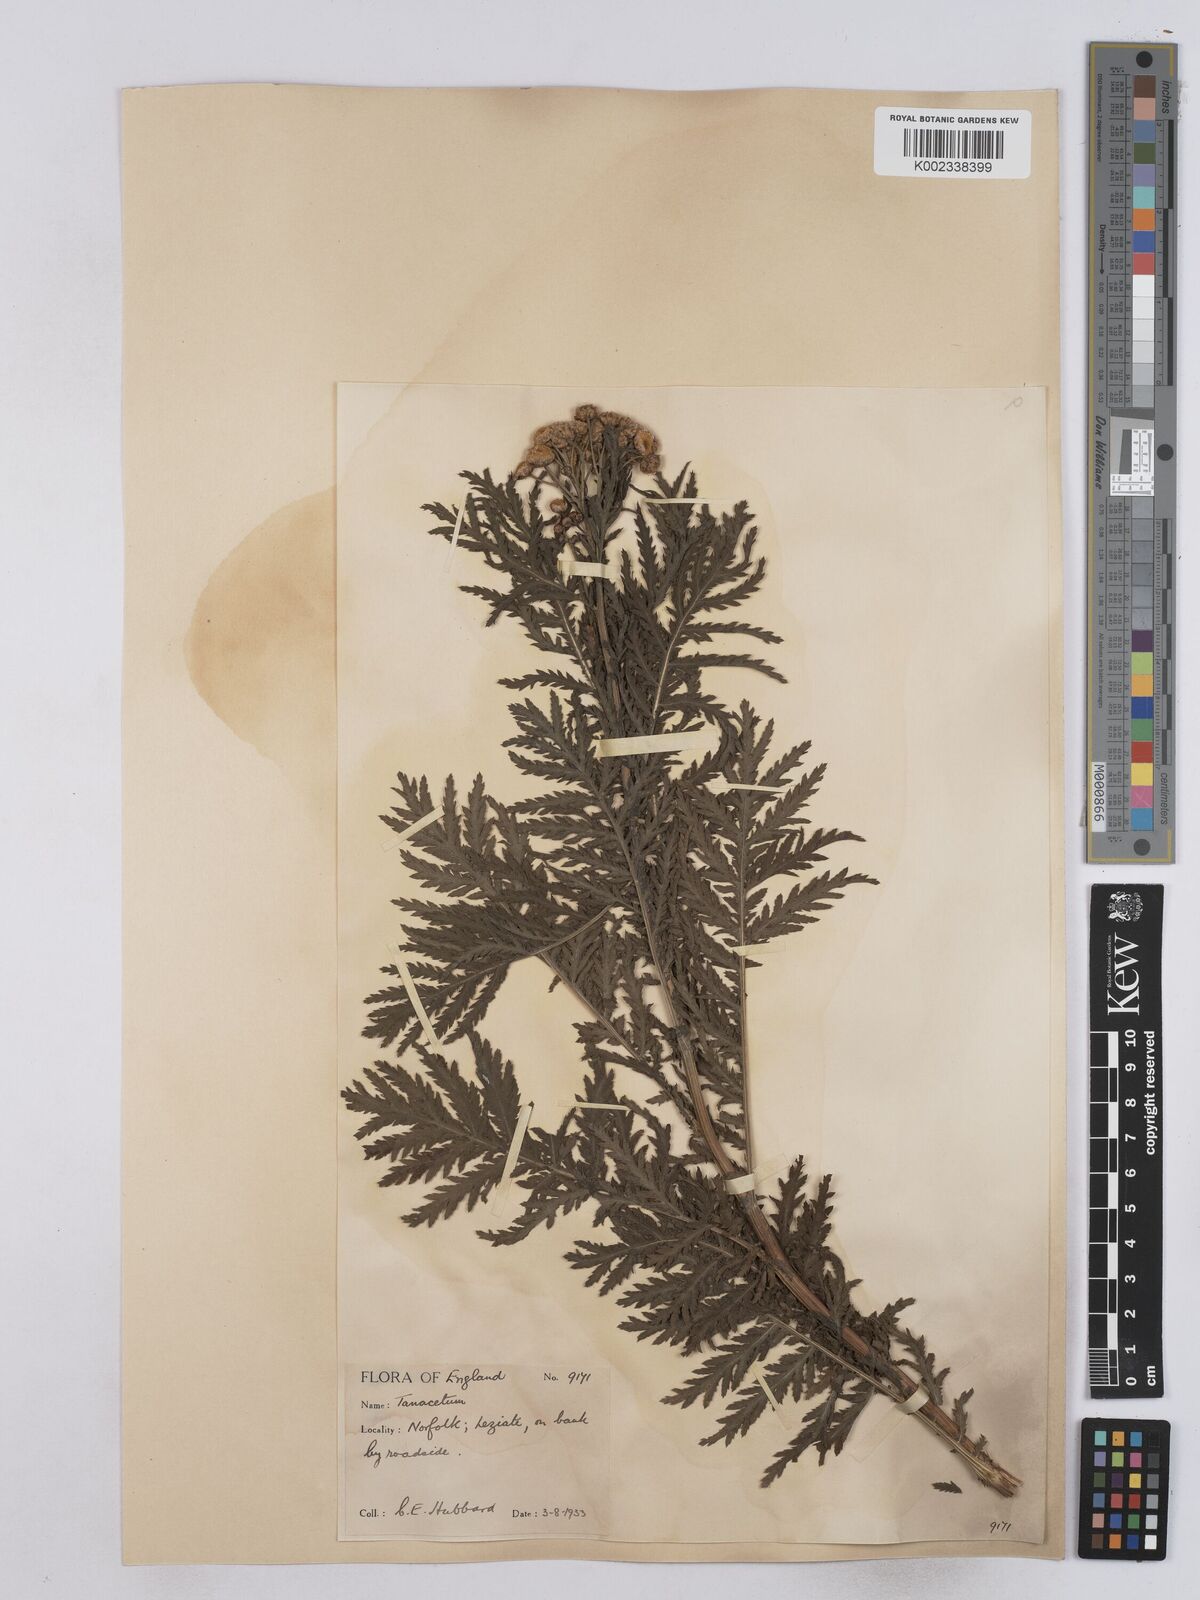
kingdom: Plantae
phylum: Tracheophyta
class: Magnoliopsida
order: Asterales
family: Asteraceae
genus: Tanacetum
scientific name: Tanacetum vulgare
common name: Common tansy
